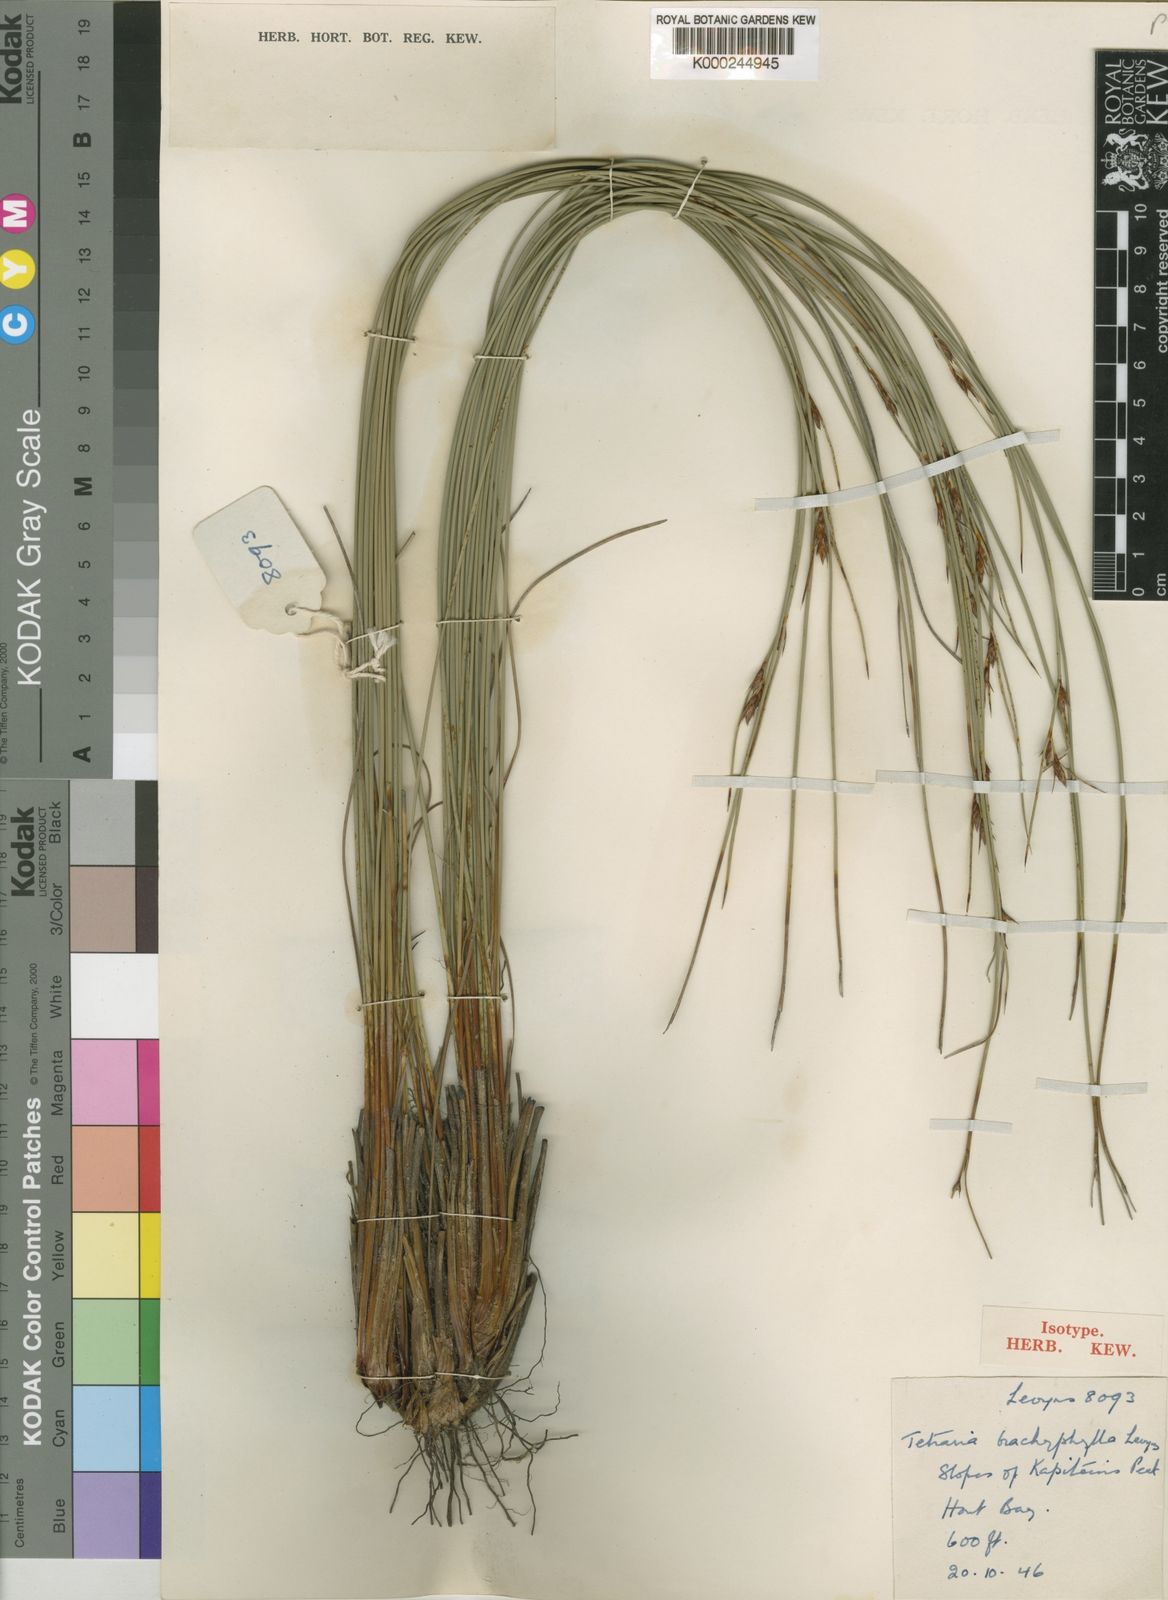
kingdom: Plantae
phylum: Tracheophyta
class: Liliopsida
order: Poales
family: Cyperaceae
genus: Schoenus
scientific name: Schoenus arenicola
